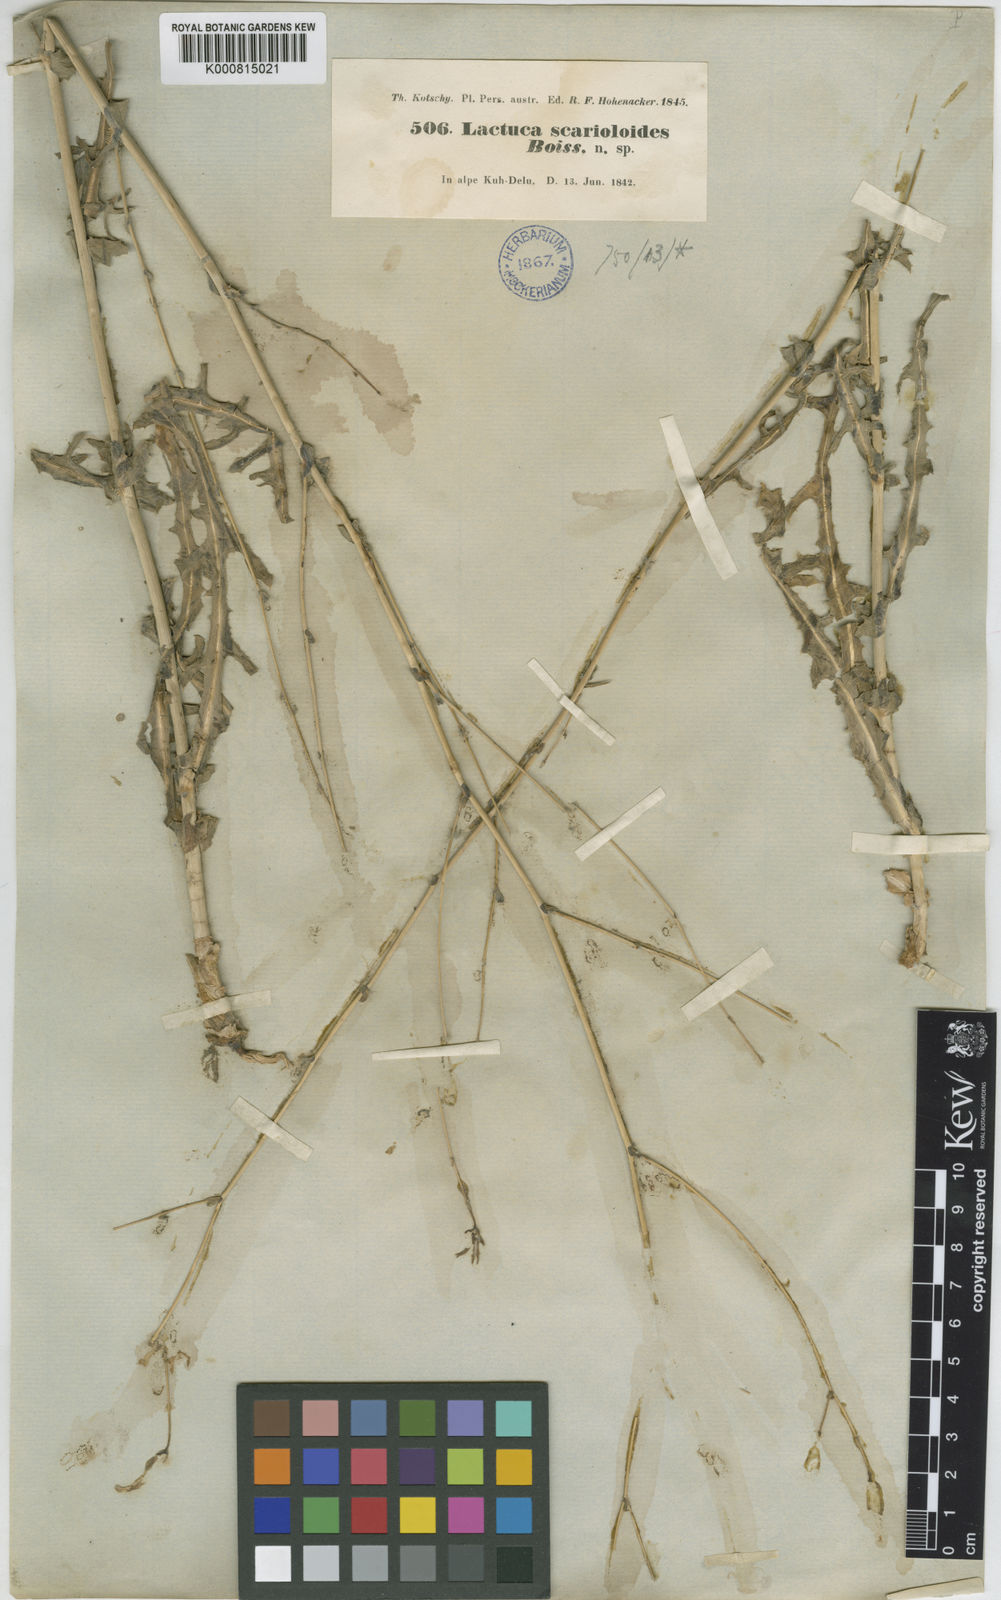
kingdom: Plantae
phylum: Tracheophyta
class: Magnoliopsida
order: Asterales
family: Asteraceae
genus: Lactuca
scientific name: Lactuca scarioloides
